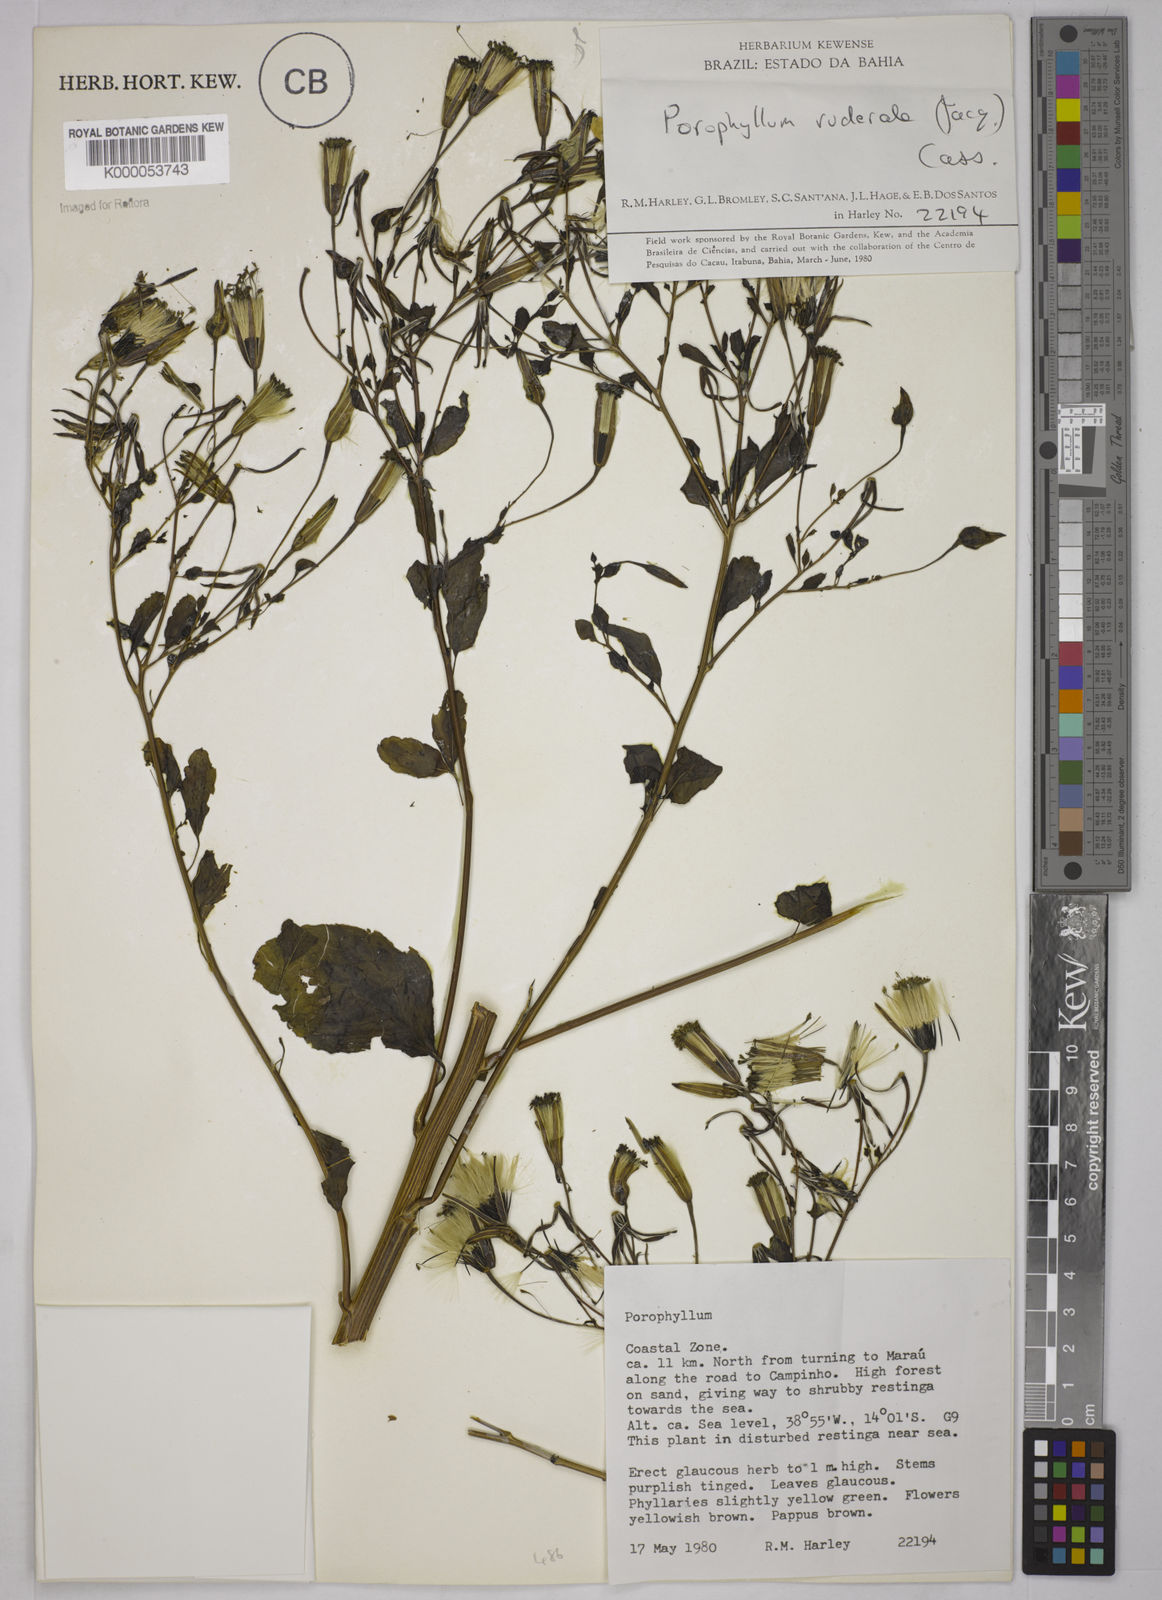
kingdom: Plantae
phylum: Tracheophyta
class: Magnoliopsida
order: Asterales
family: Asteraceae
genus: Porophyllum
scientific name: Porophyllum ruderale
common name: Yerba porosa
